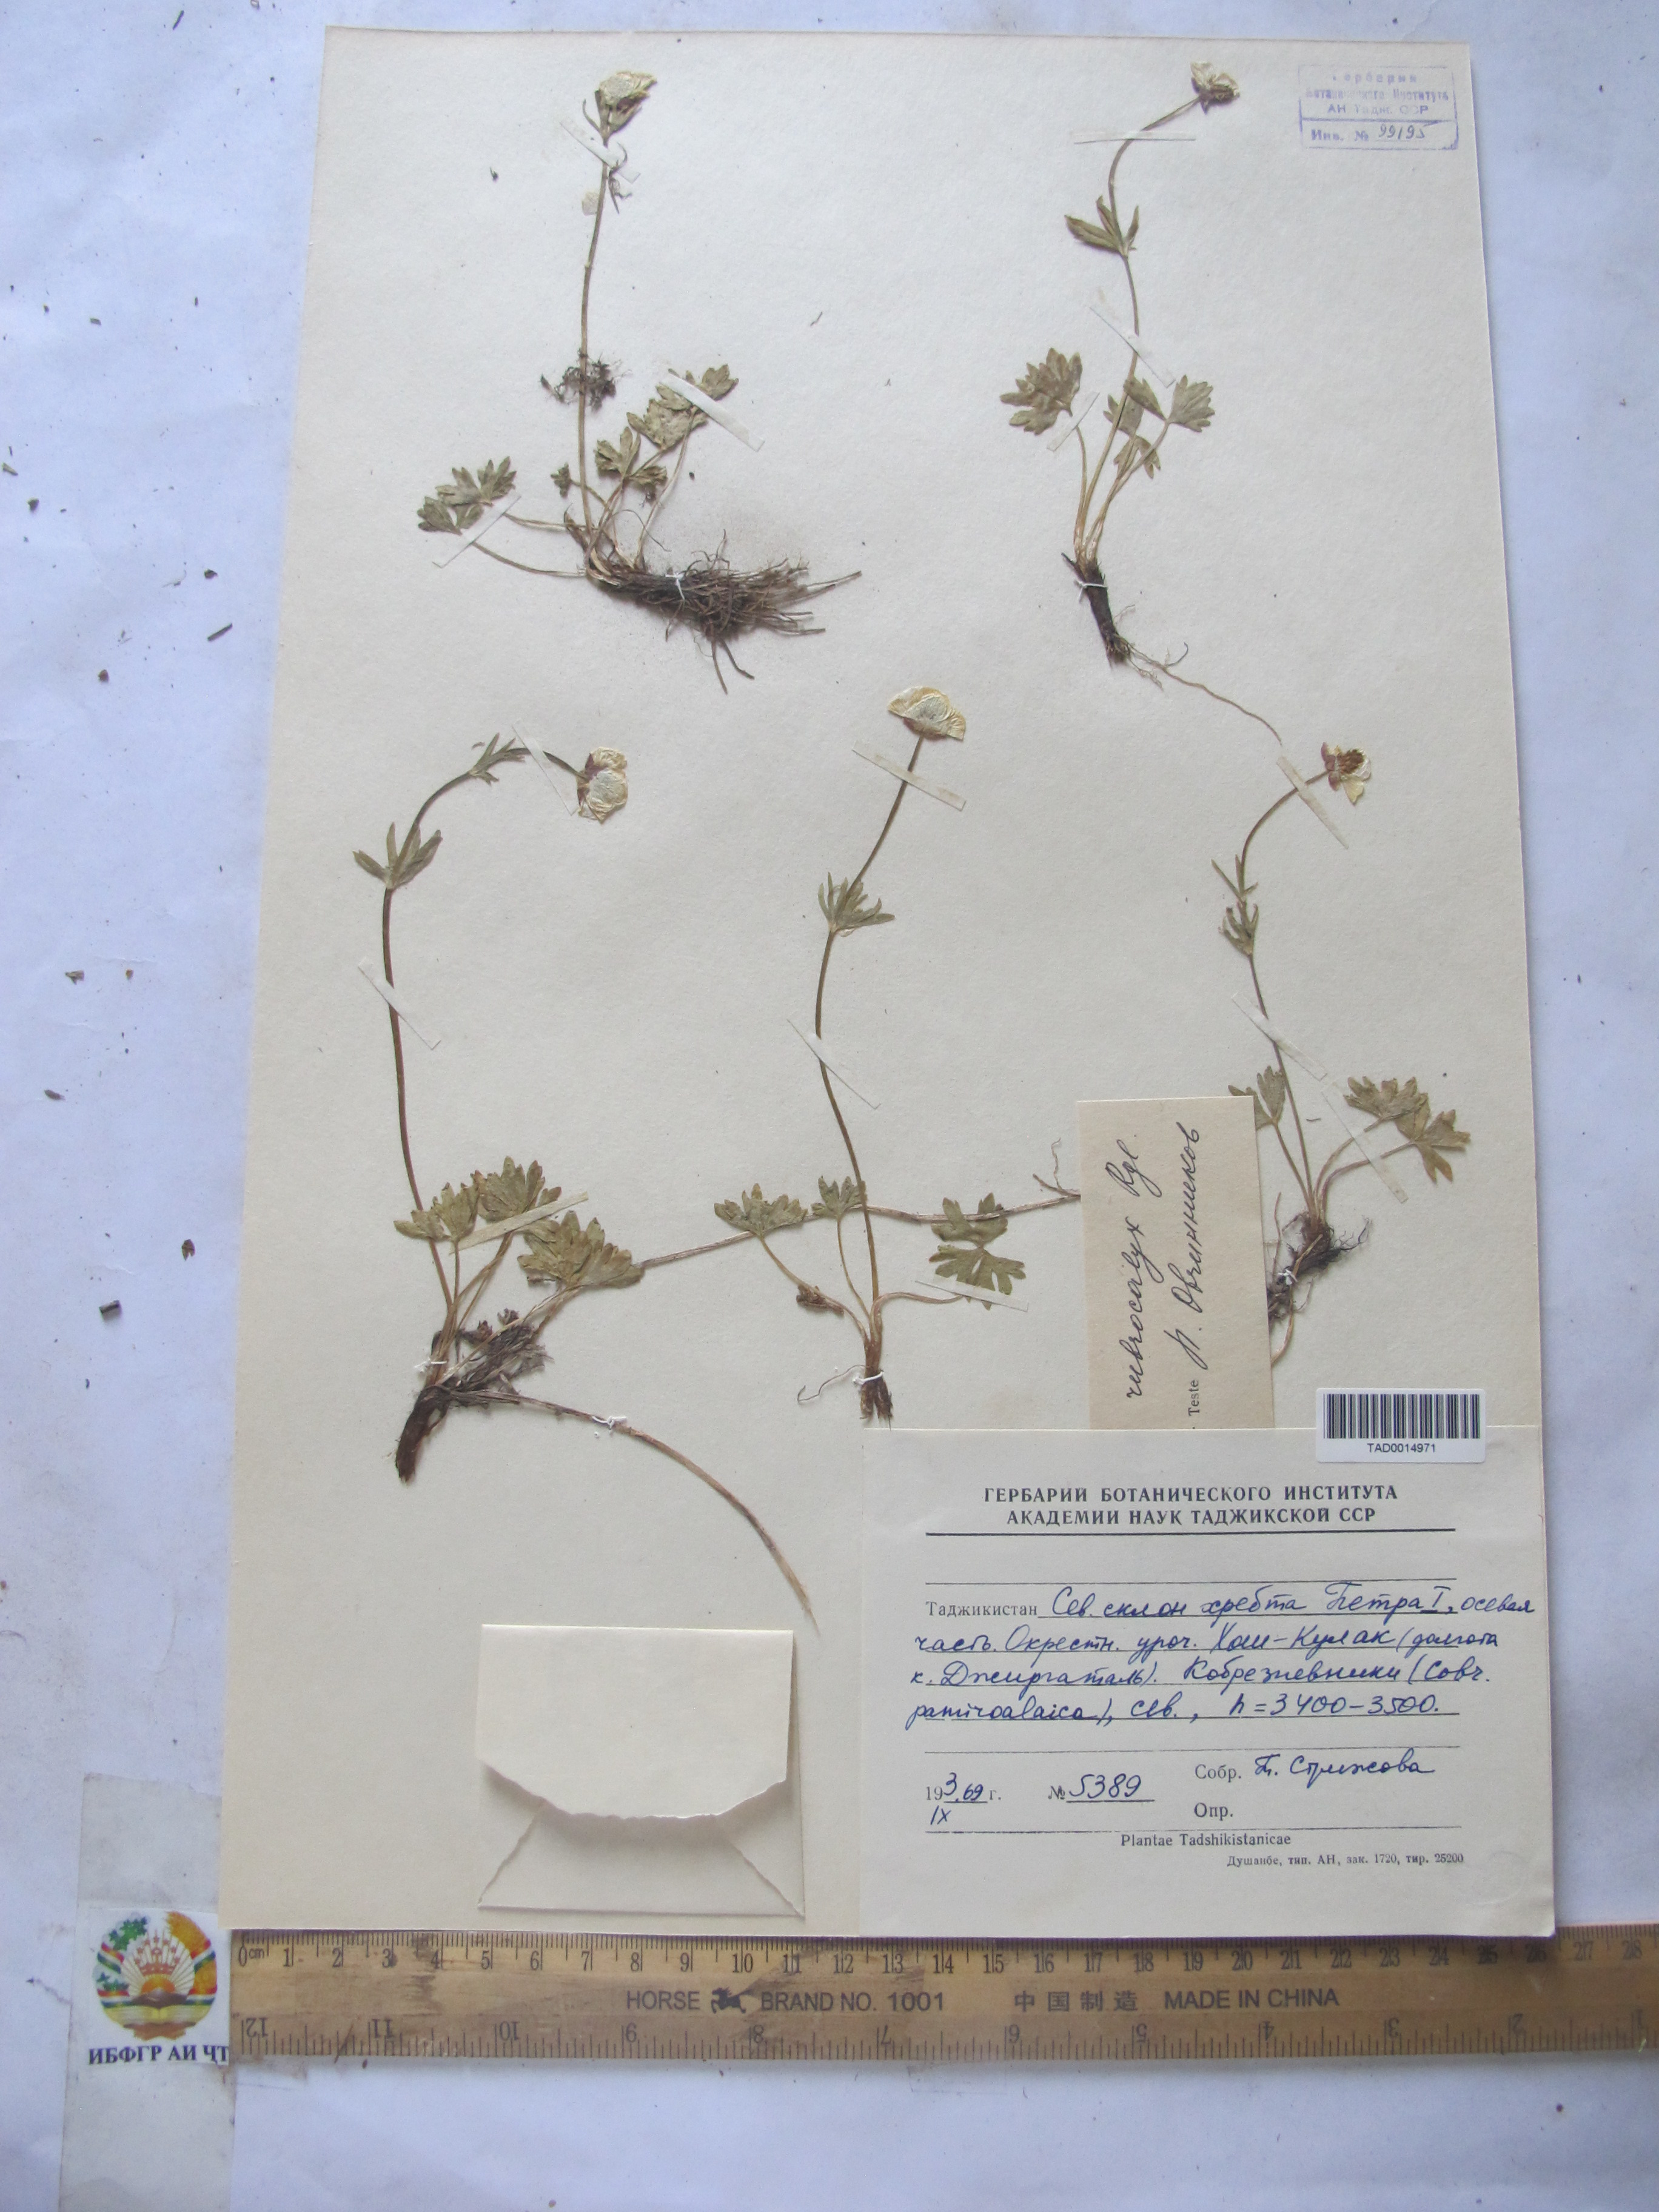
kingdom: Plantae
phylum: Tracheophyta
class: Magnoliopsida
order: Ranunculales
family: Ranunculaceae
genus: Ranunculus
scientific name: Ranunculus rubrocalyx
